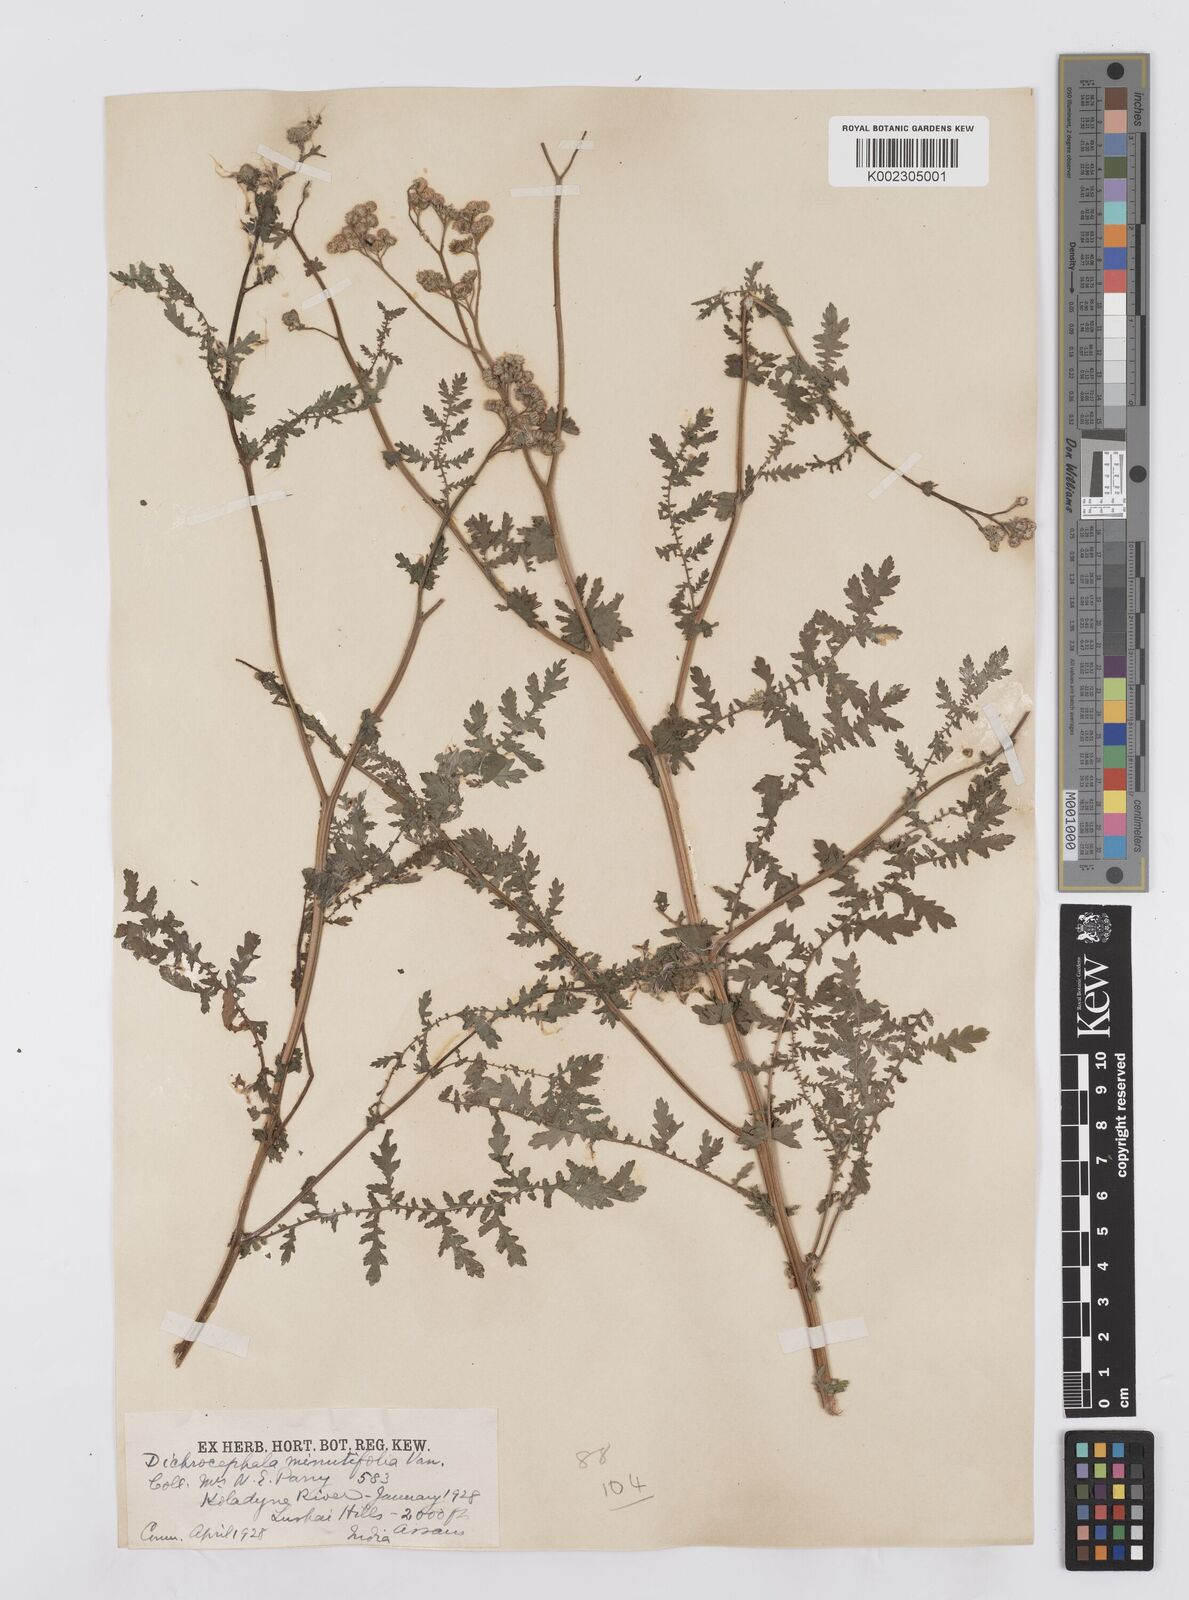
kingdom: Plantae
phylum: Tracheophyta
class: Magnoliopsida
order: Asterales
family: Asteraceae
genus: Cyathocline
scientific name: Cyathocline purpurea
